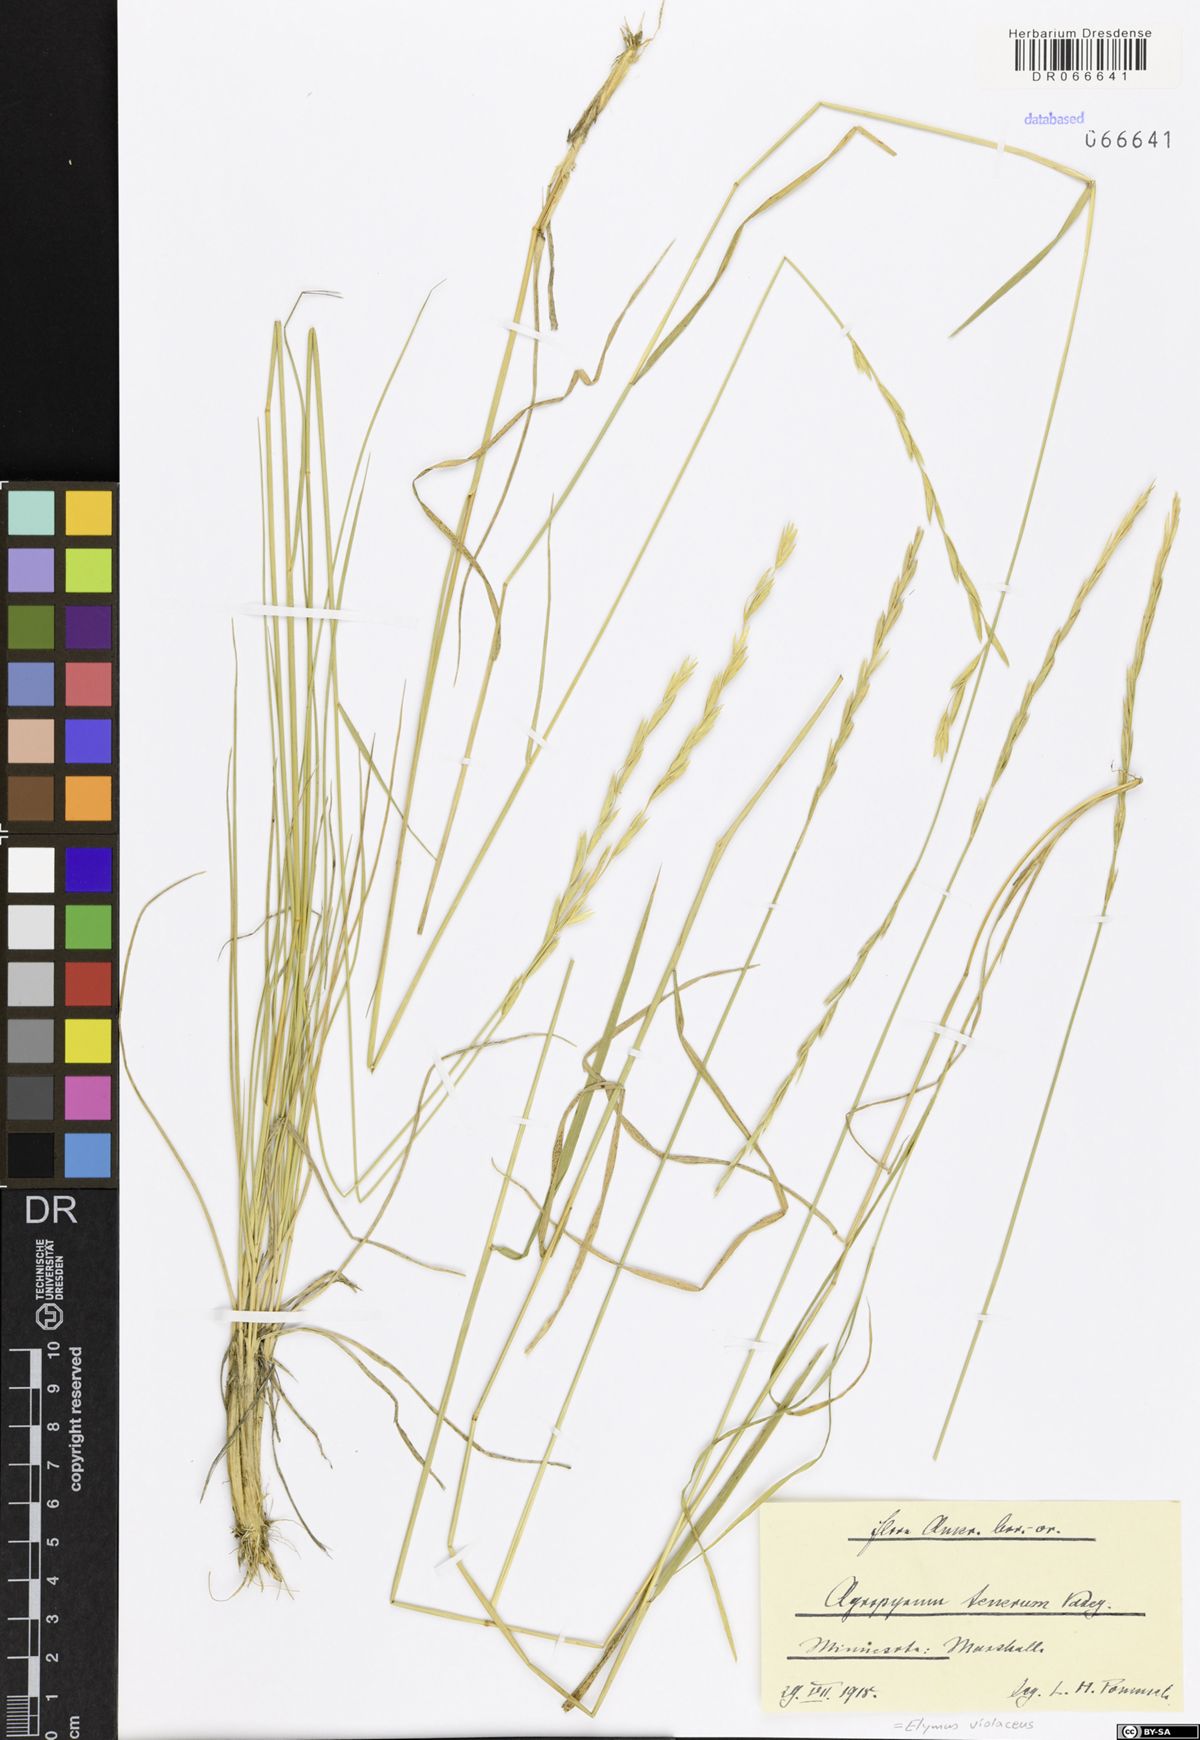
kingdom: Plantae
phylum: Tracheophyta
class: Liliopsida
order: Poales
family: Poaceae
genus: Elymus
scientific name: Elymus violaceus
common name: Arctic wheatgrass
